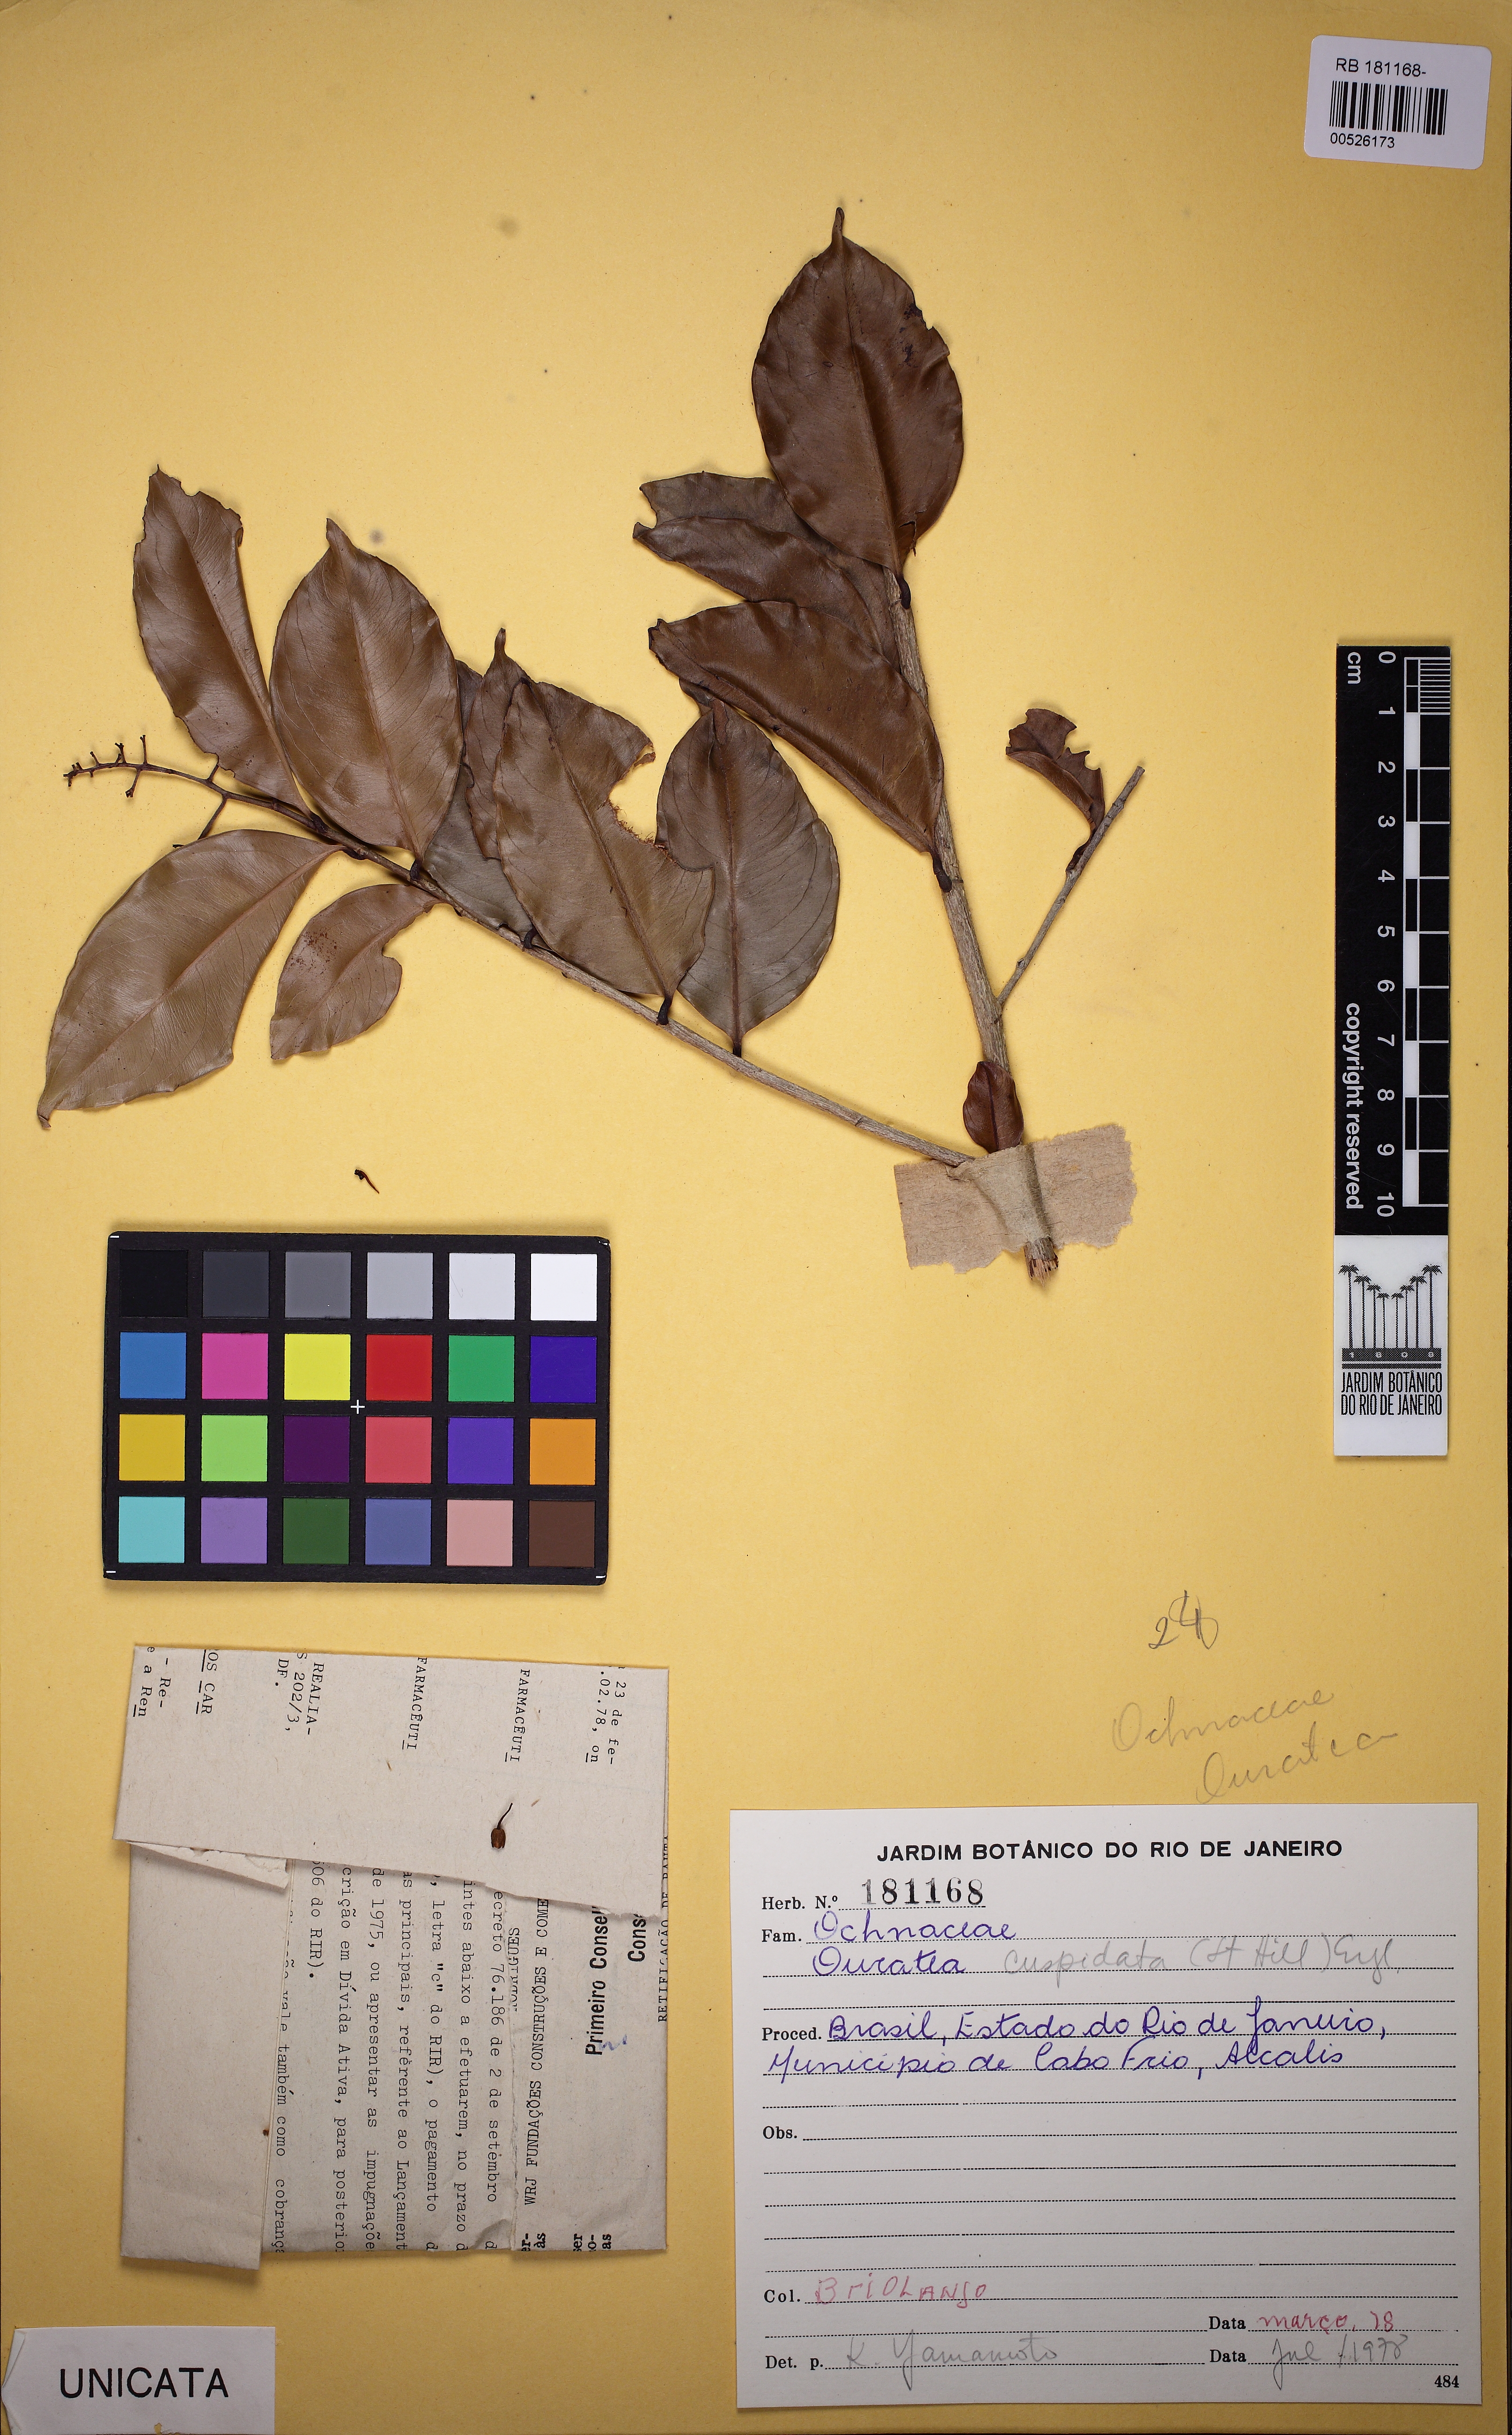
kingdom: Plantae
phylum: Tracheophyta
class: Magnoliopsida
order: Malpighiales
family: Ochnaceae
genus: Ouratea
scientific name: Ouratea cuspidata
